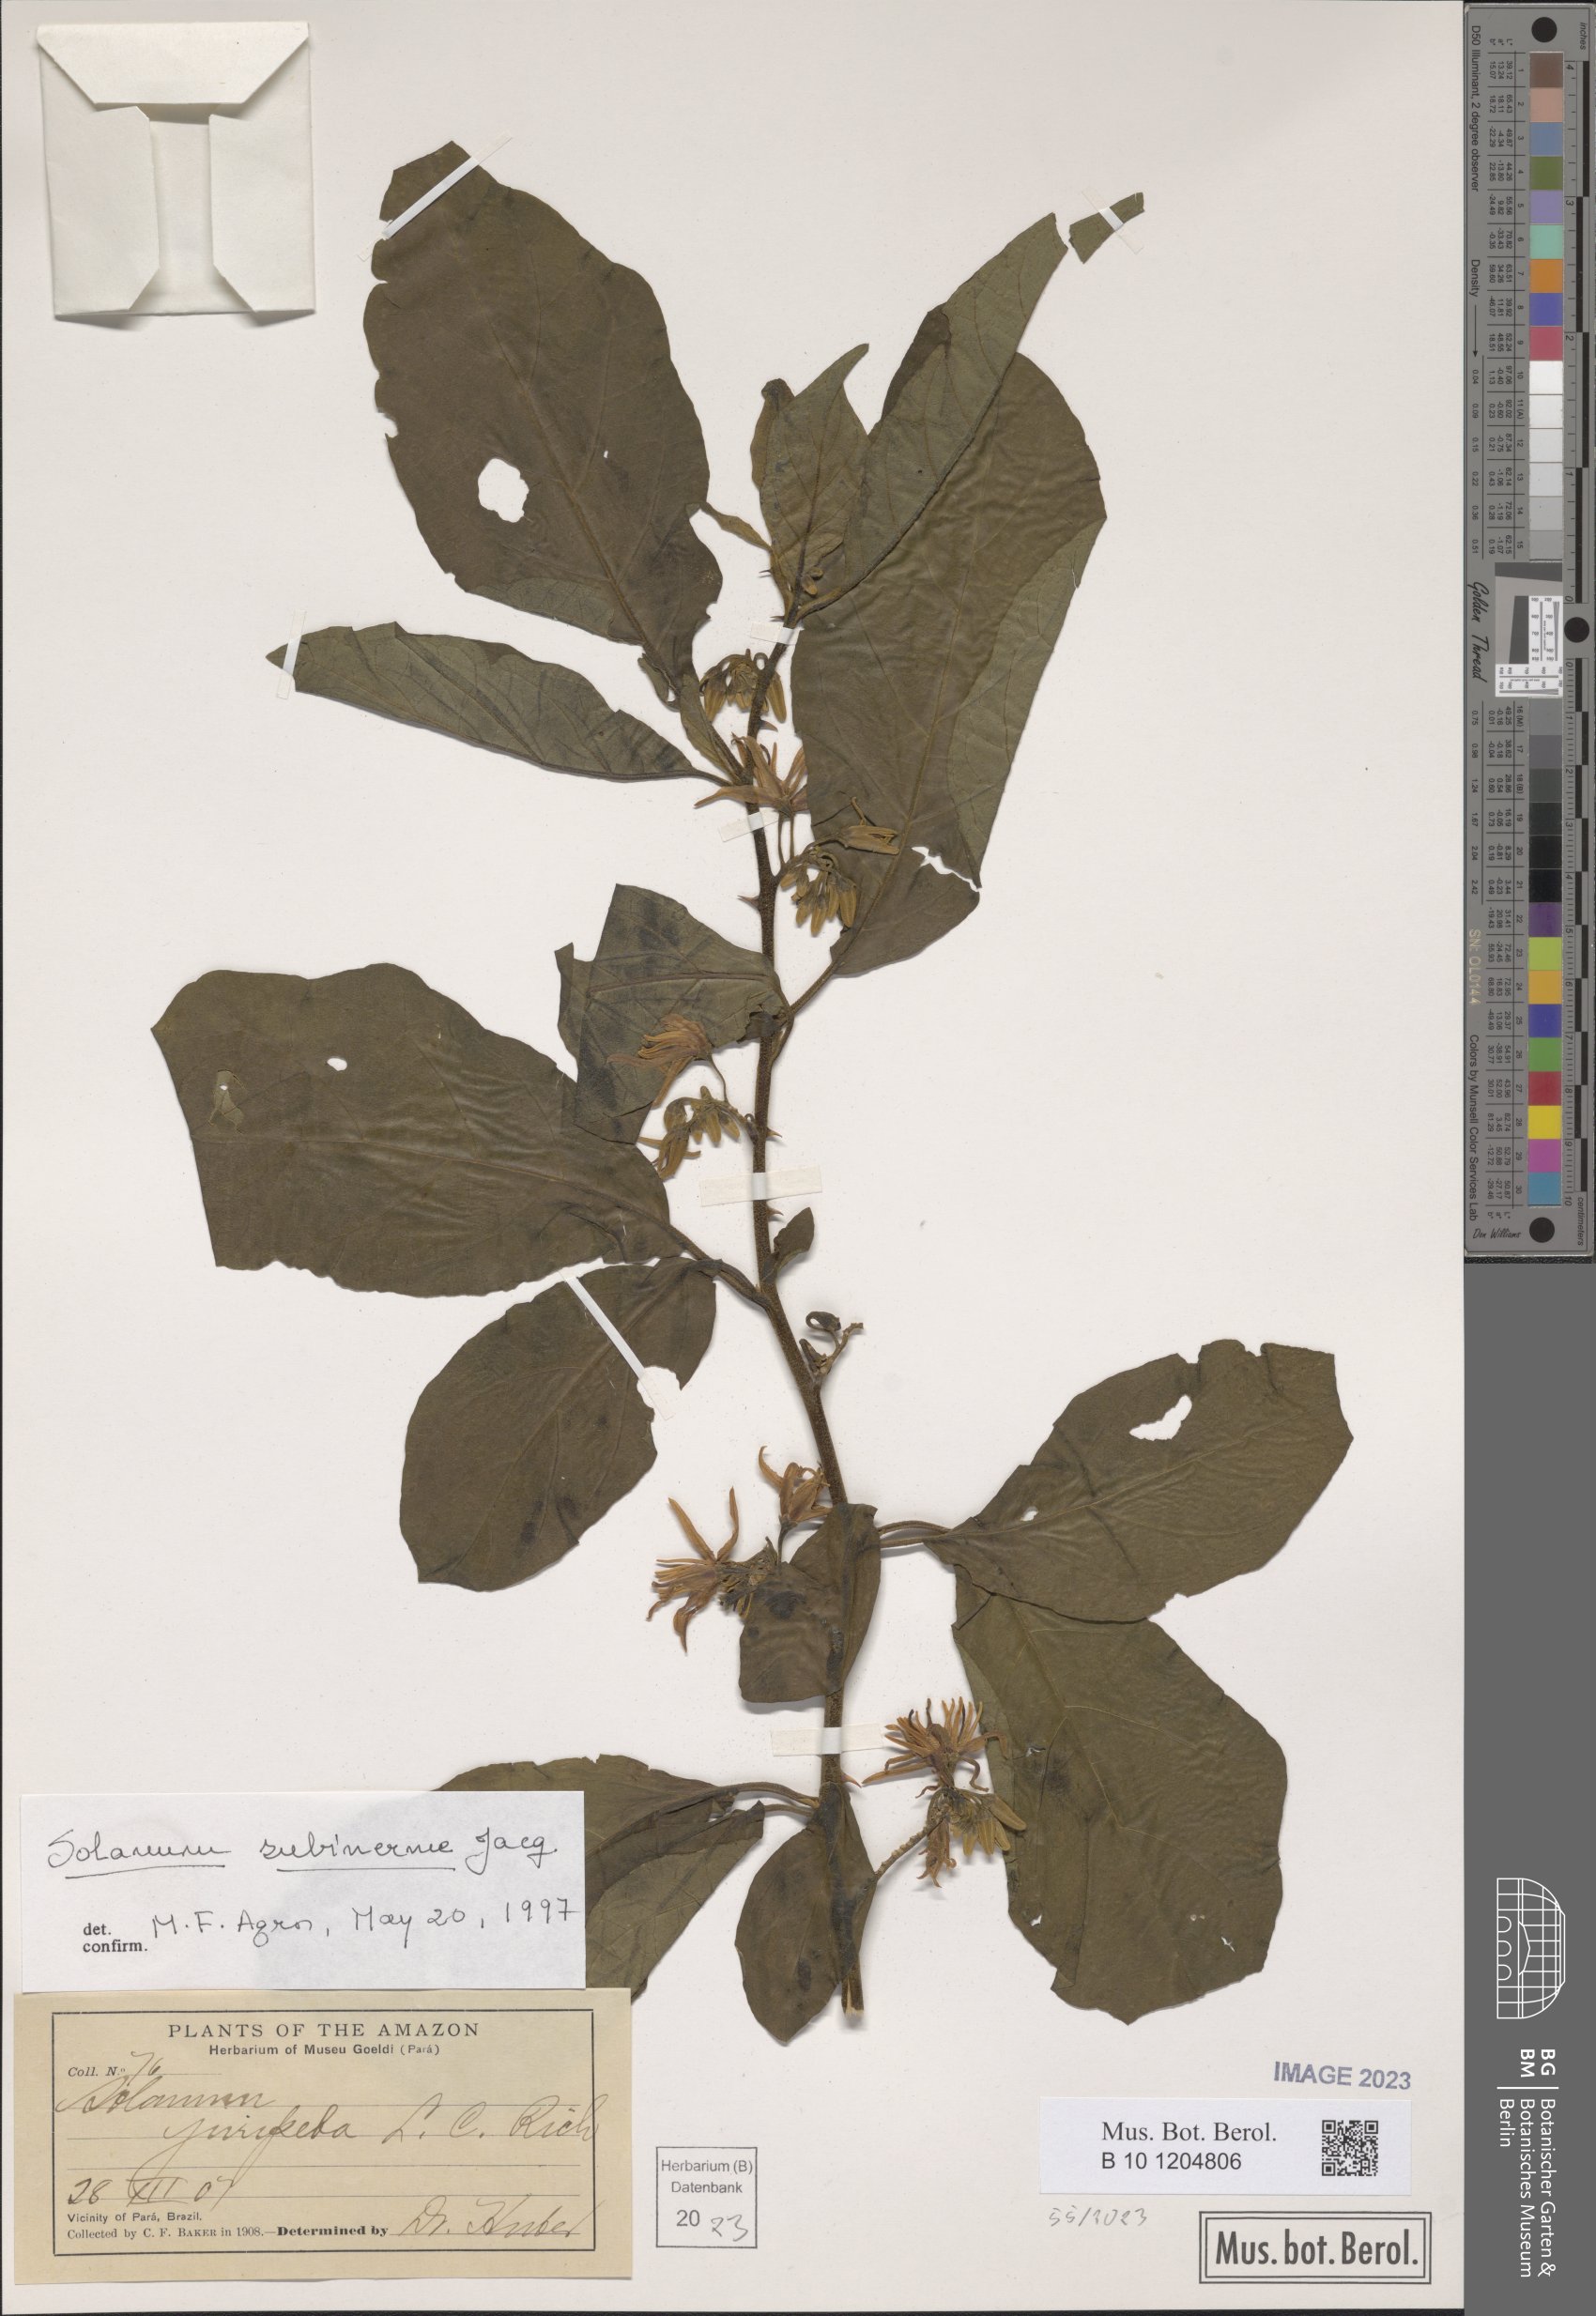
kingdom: Plantae
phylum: Tracheophyta
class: Magnoliopsida
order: Solanales
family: Solanaceae
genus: Solanum
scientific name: Solanum subinerme
